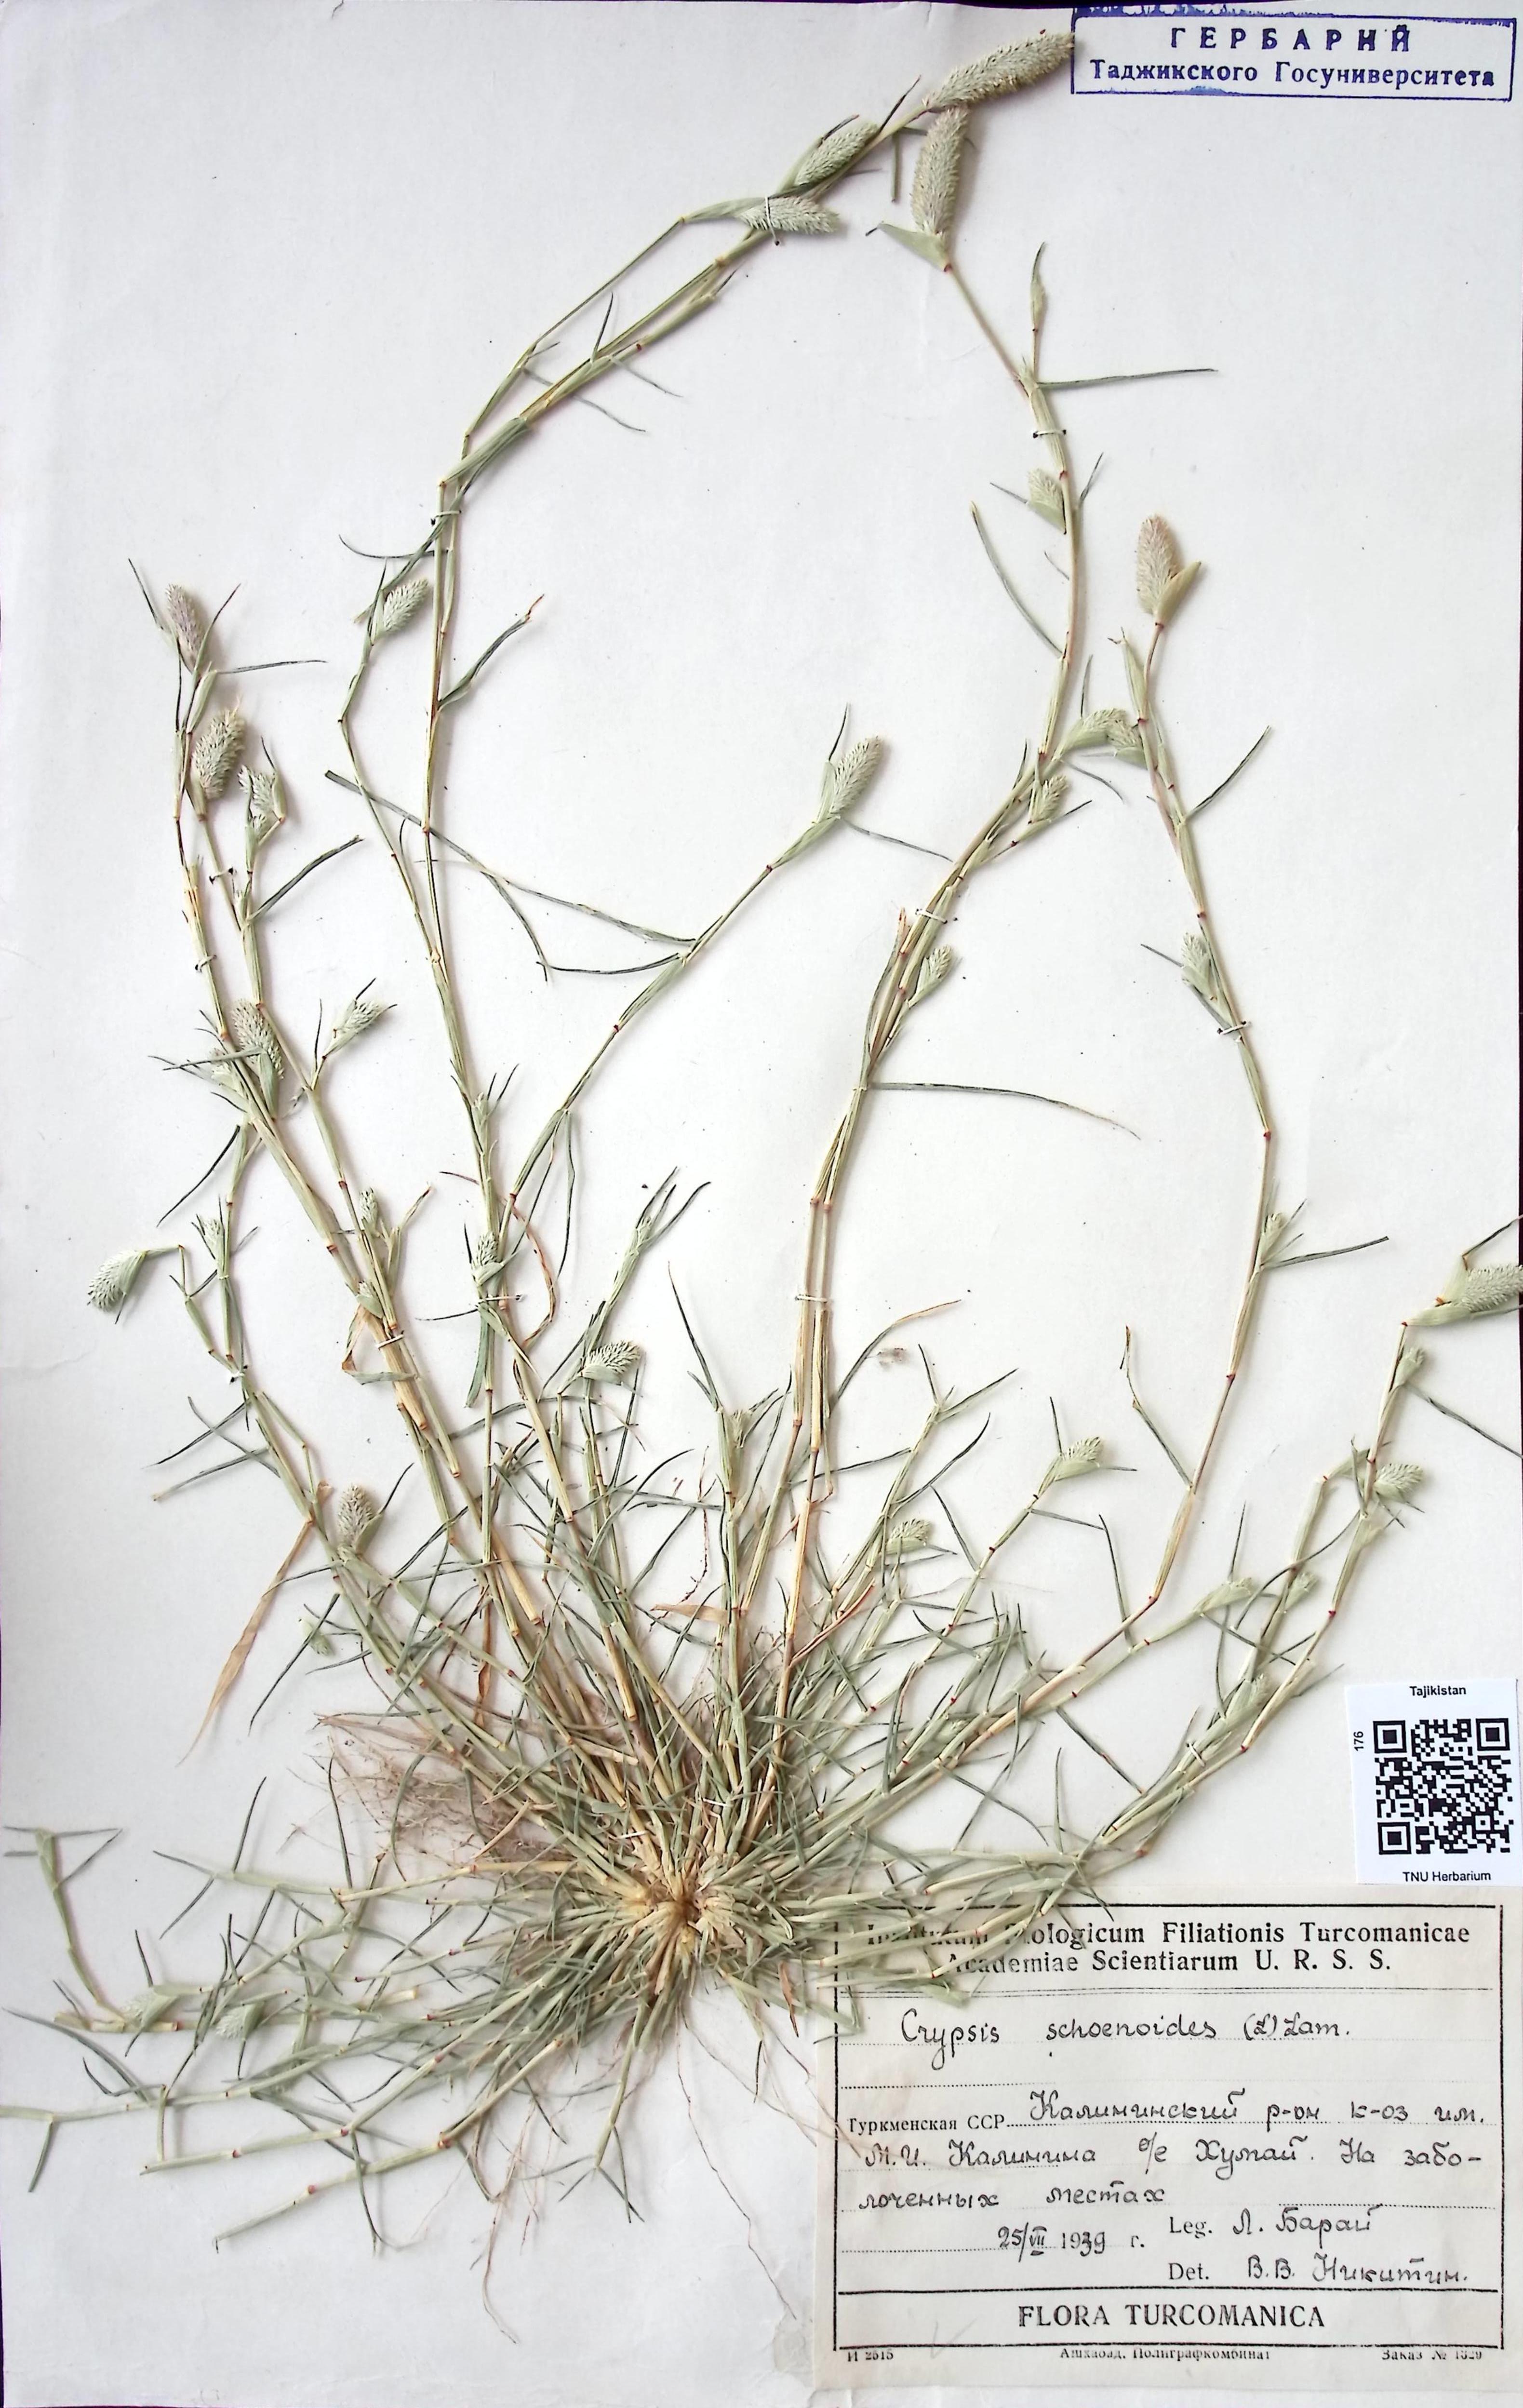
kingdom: Plantae
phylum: Tracheophyta
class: Liliopsida
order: Poales
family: Poaceae
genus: Sporobolus
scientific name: Sporobolus
